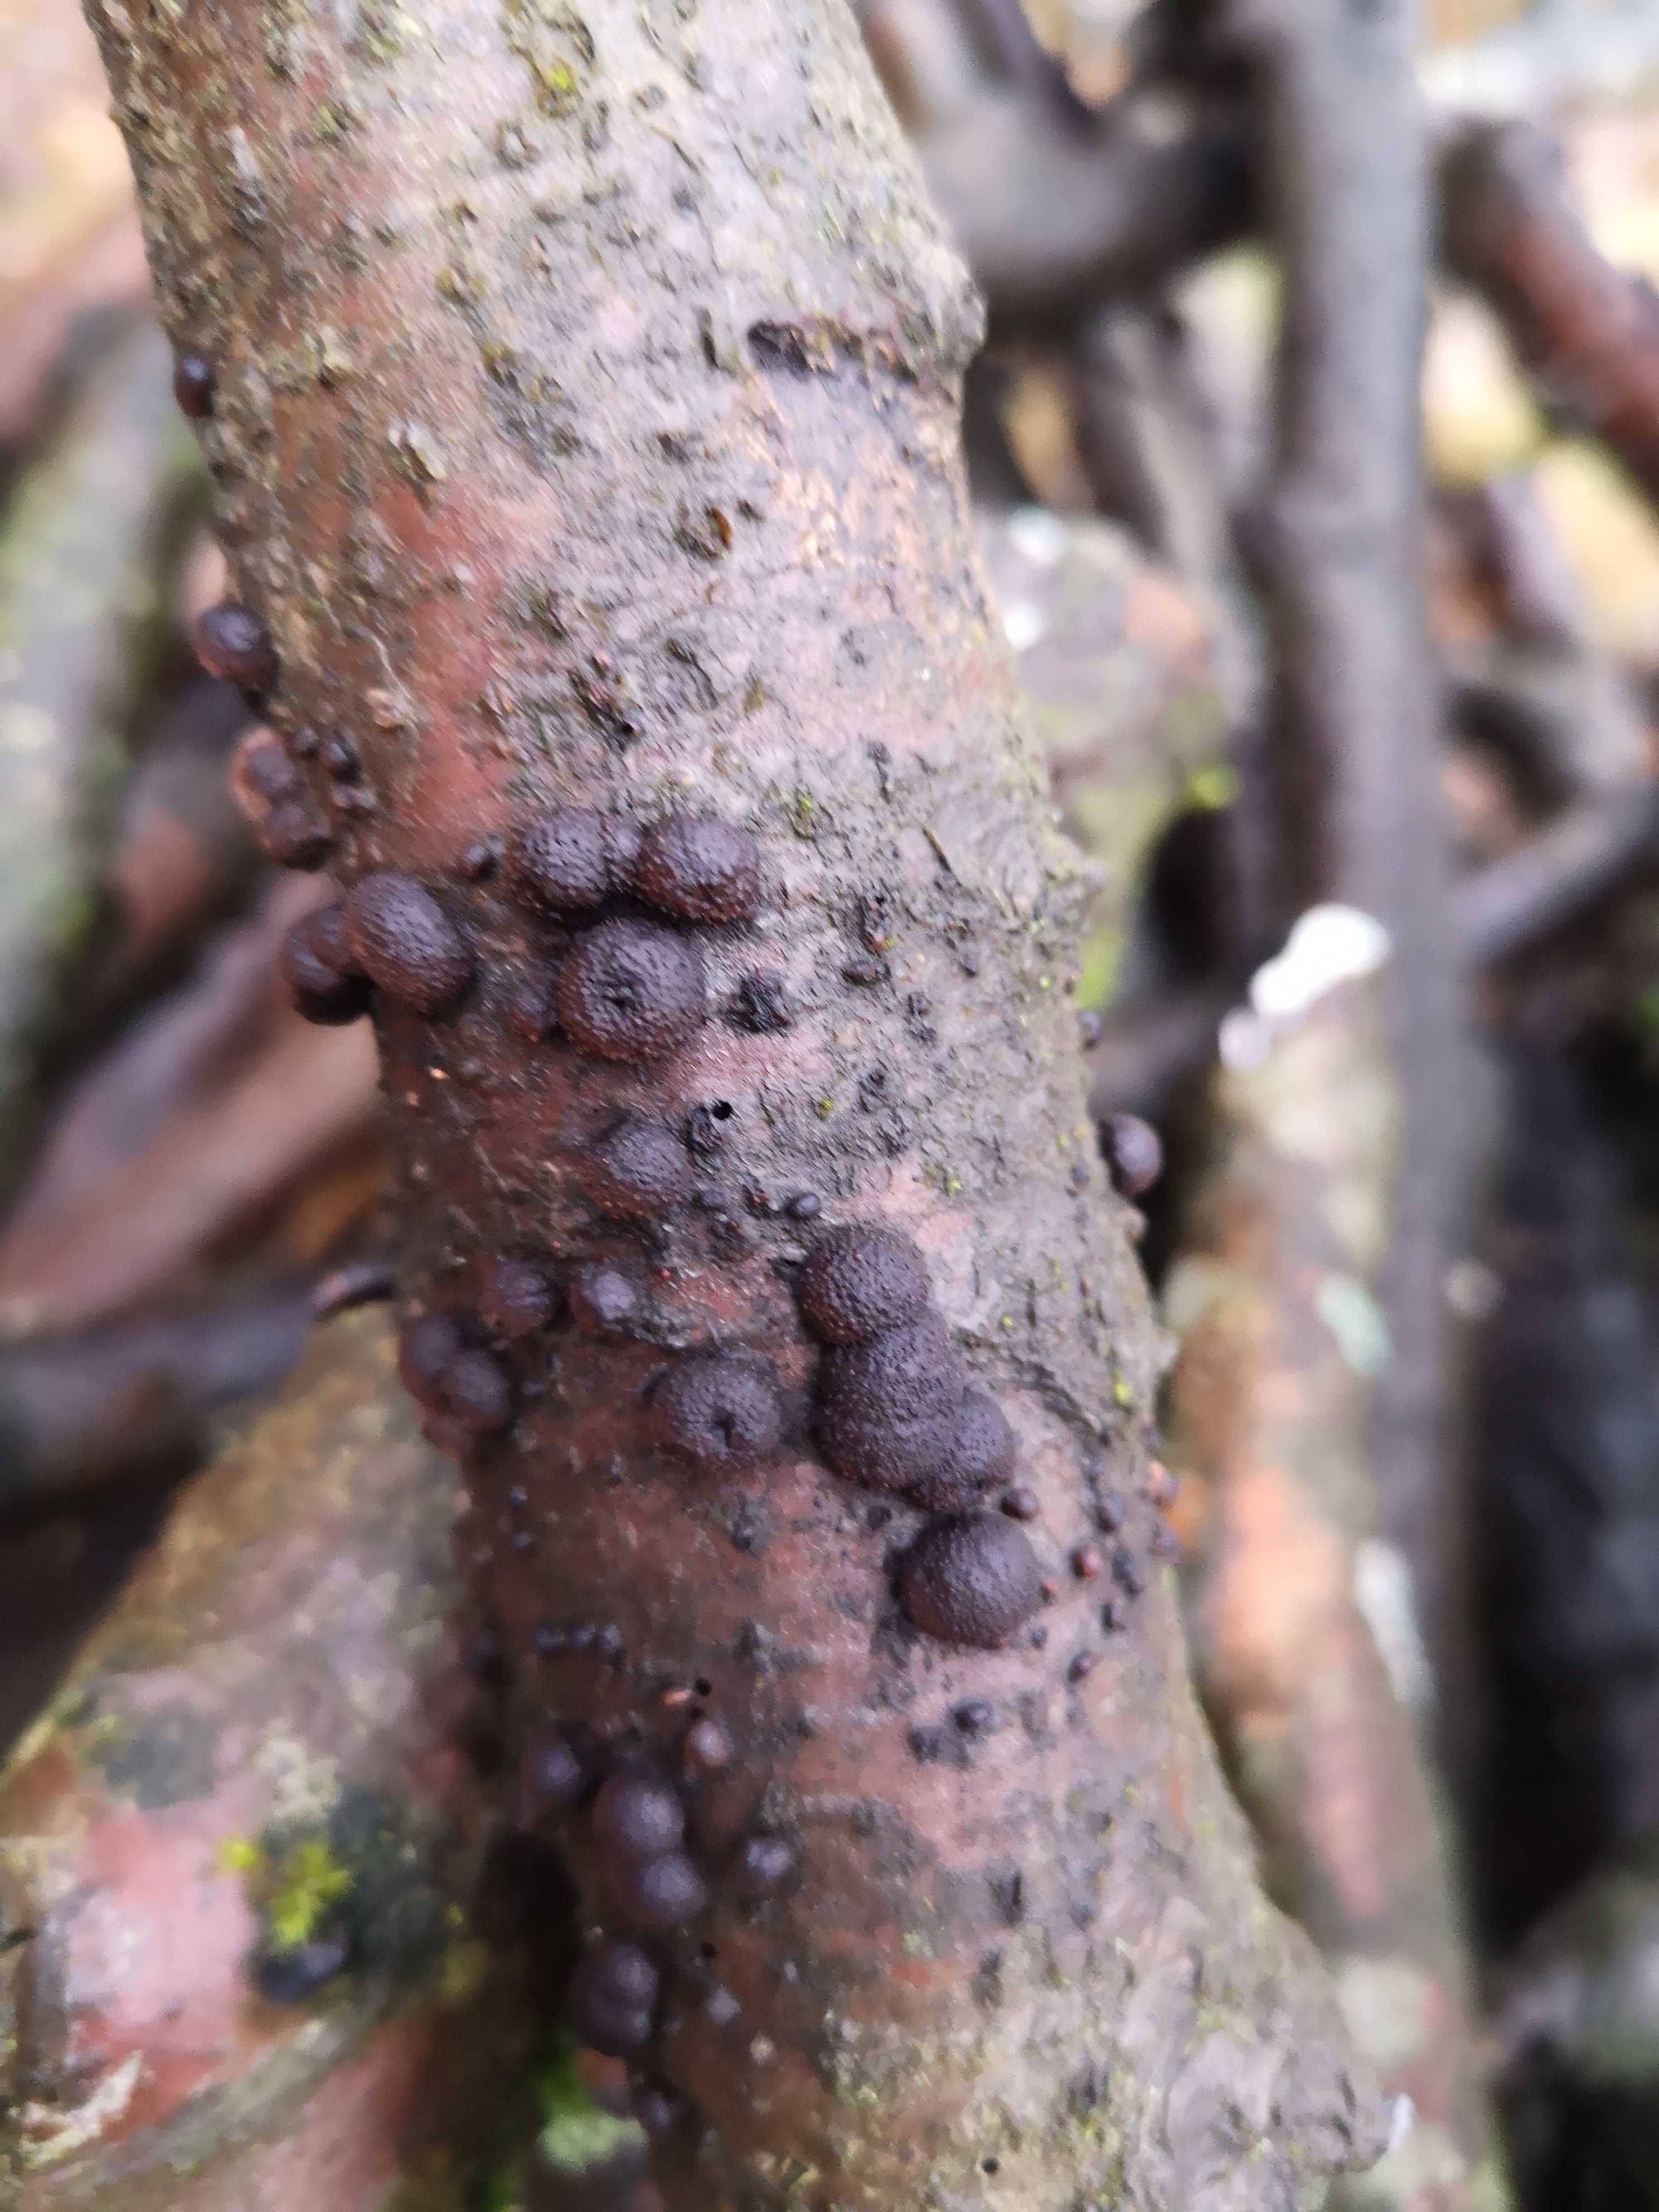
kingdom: Fungi
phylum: Ascomycota
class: Sordariomycetes
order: Xylariales
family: Hypoxylaceae
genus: Hypoxylon
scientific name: Hypoxylon fragiforme
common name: kuljordbær
